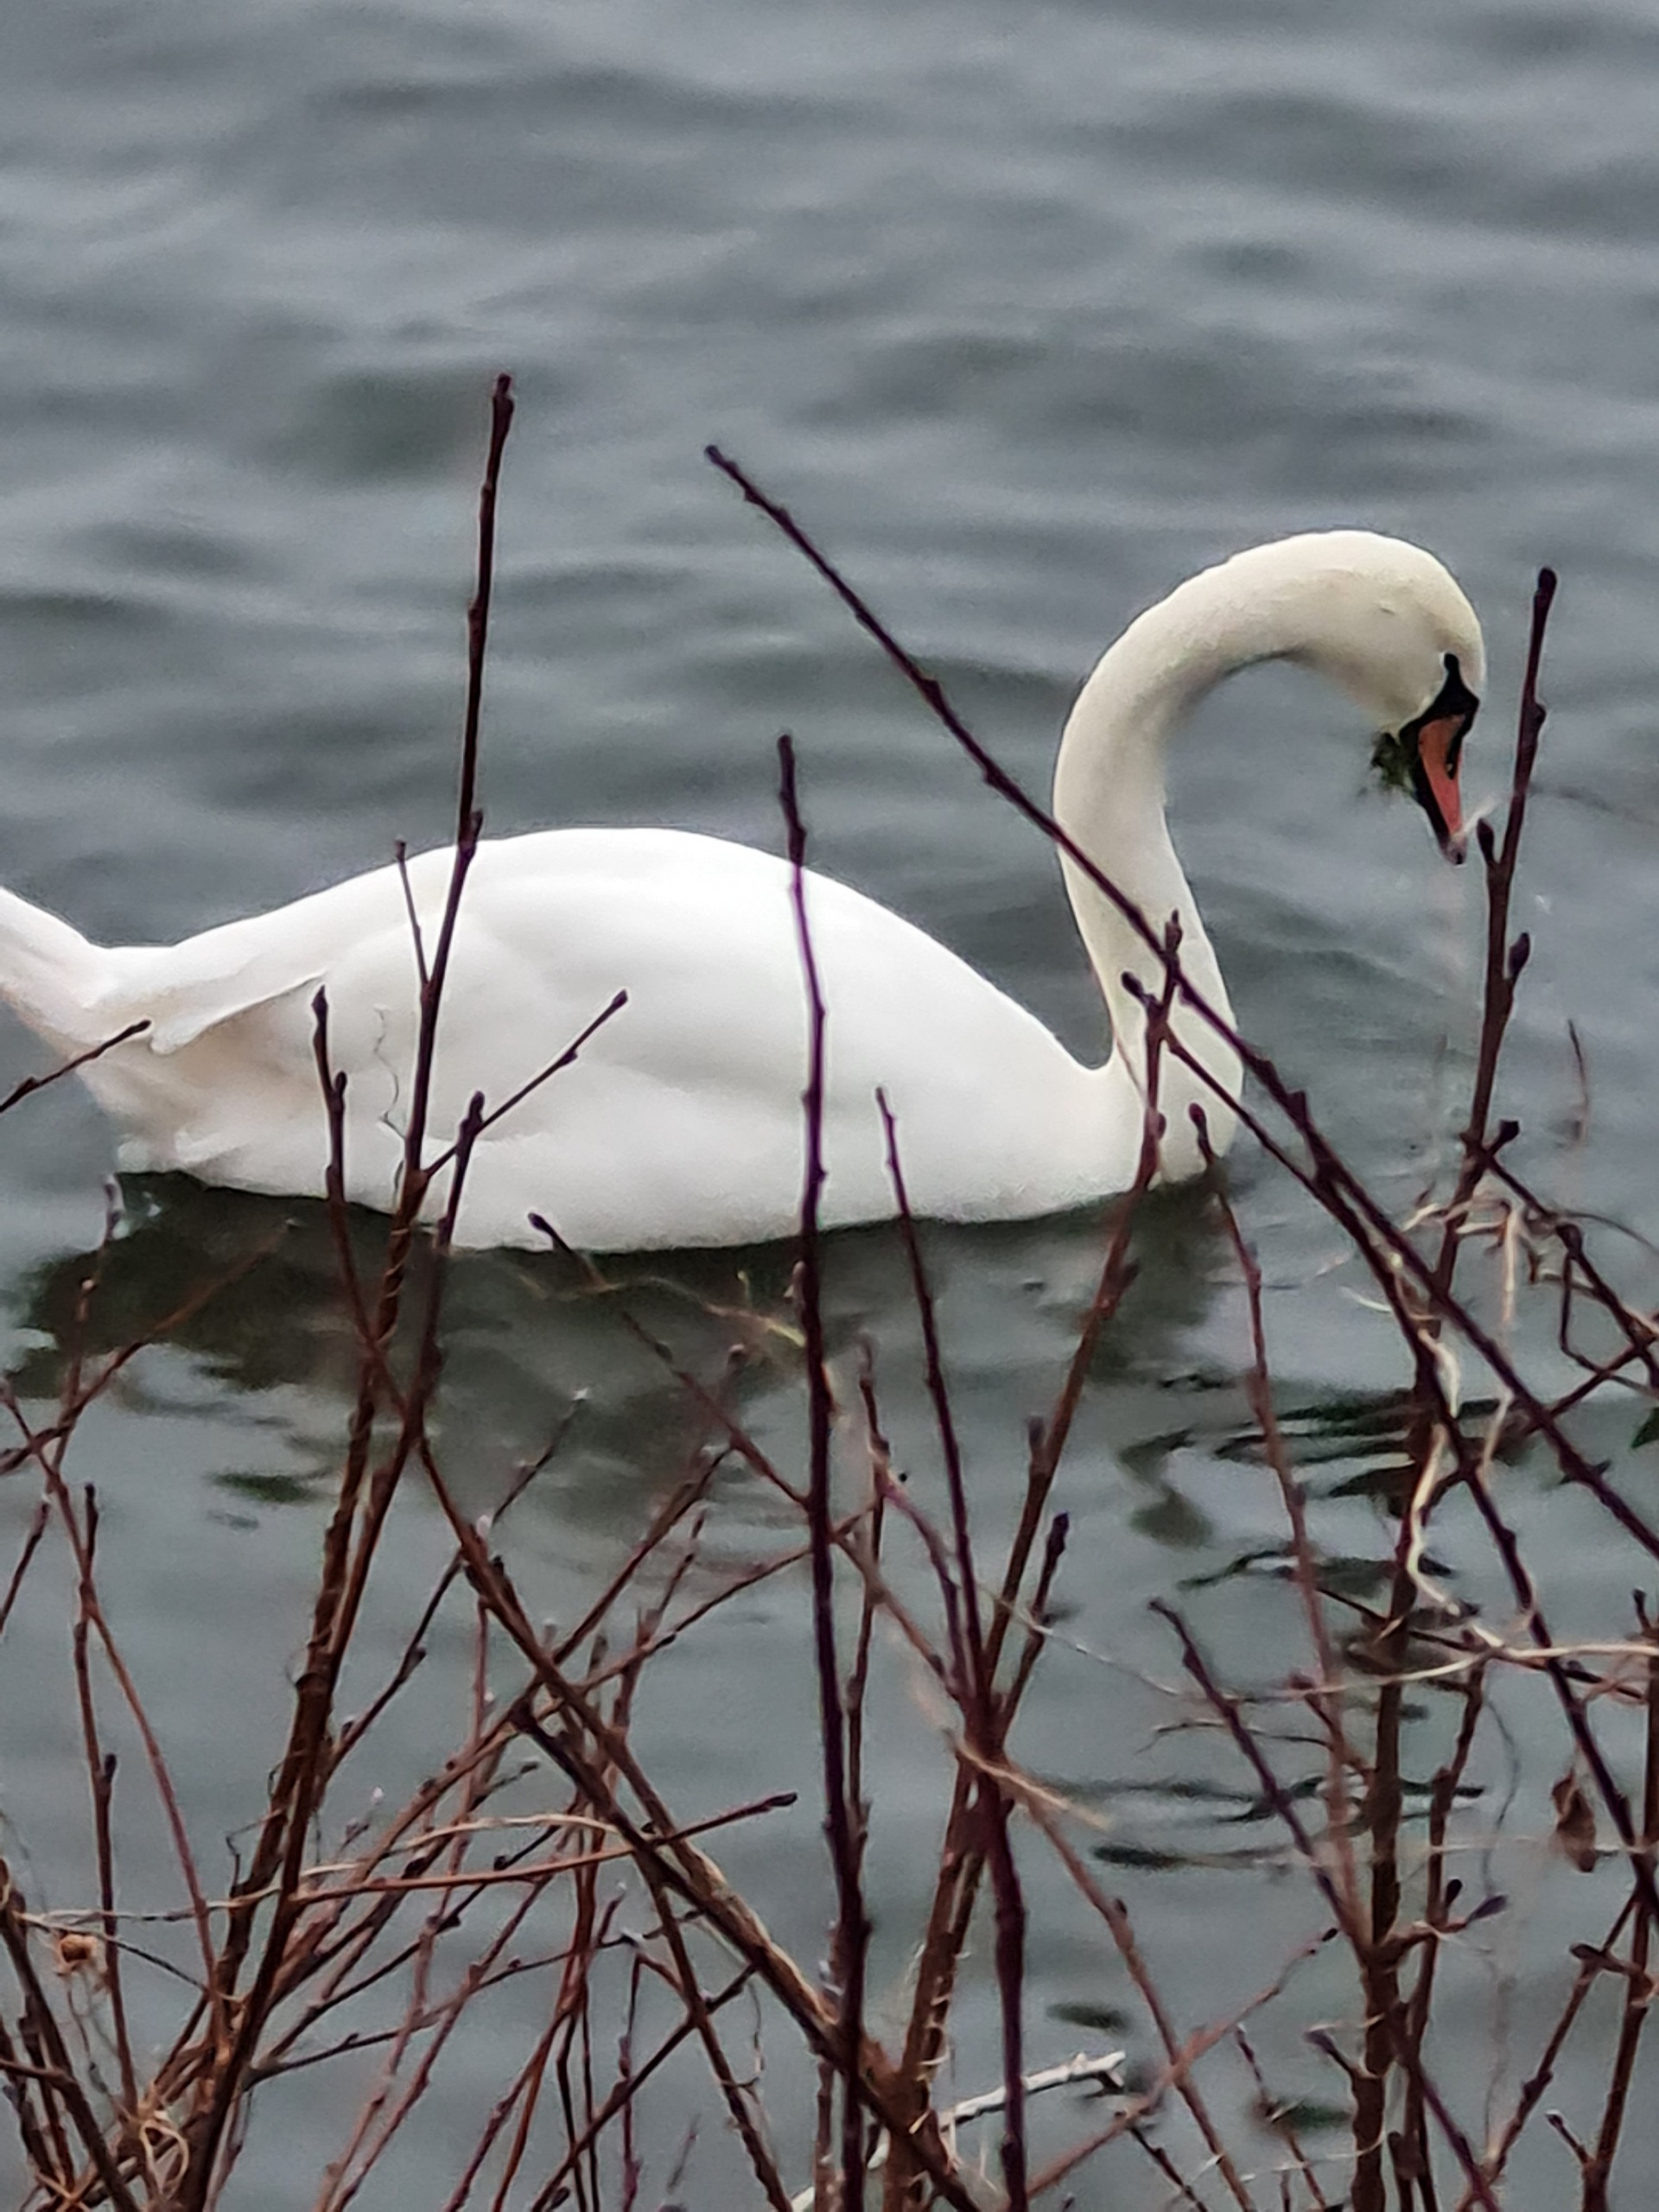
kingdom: Animalia
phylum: Chordata
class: Aves
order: Anseriformes
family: Anatidae
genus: Cygnus
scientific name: Cygnus olor
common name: Knopsvane
